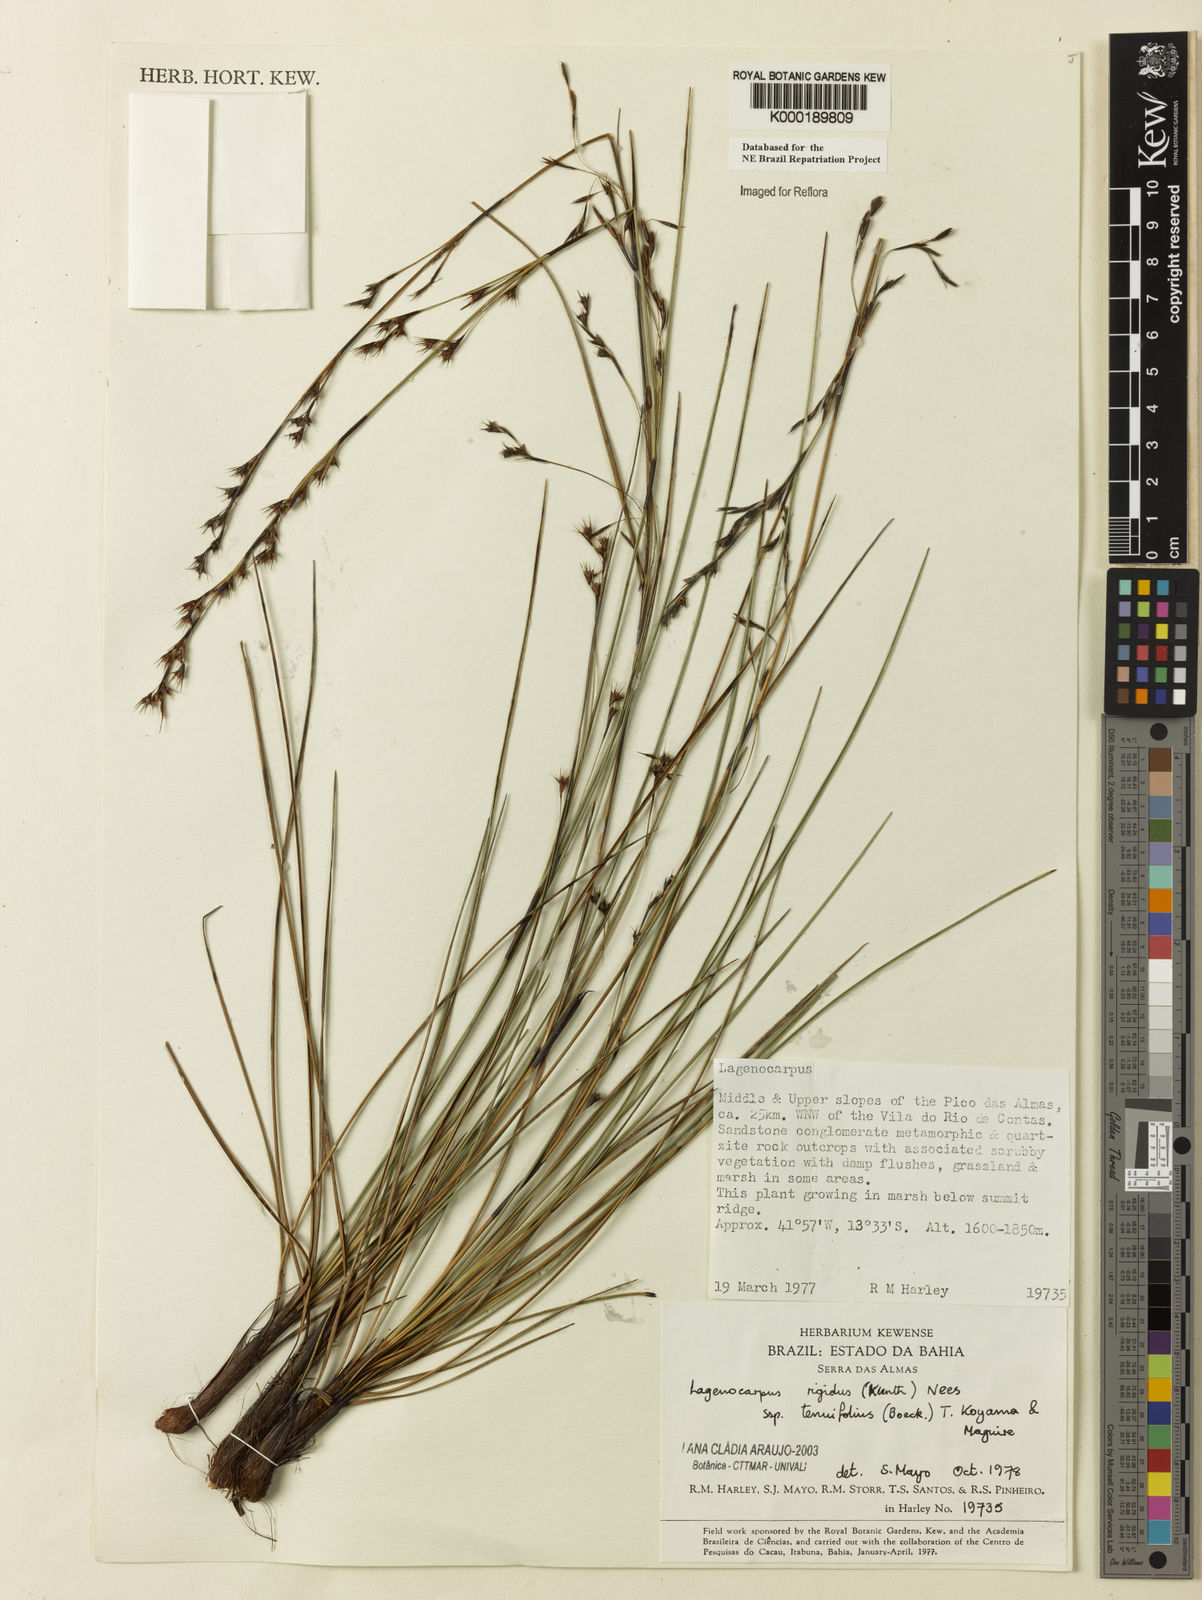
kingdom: Plantae
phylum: Tracheophyta
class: Liliopsida
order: Poales
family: Cyperaceae
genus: Lagenocarpus
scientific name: Lagenocarpus rigidus
